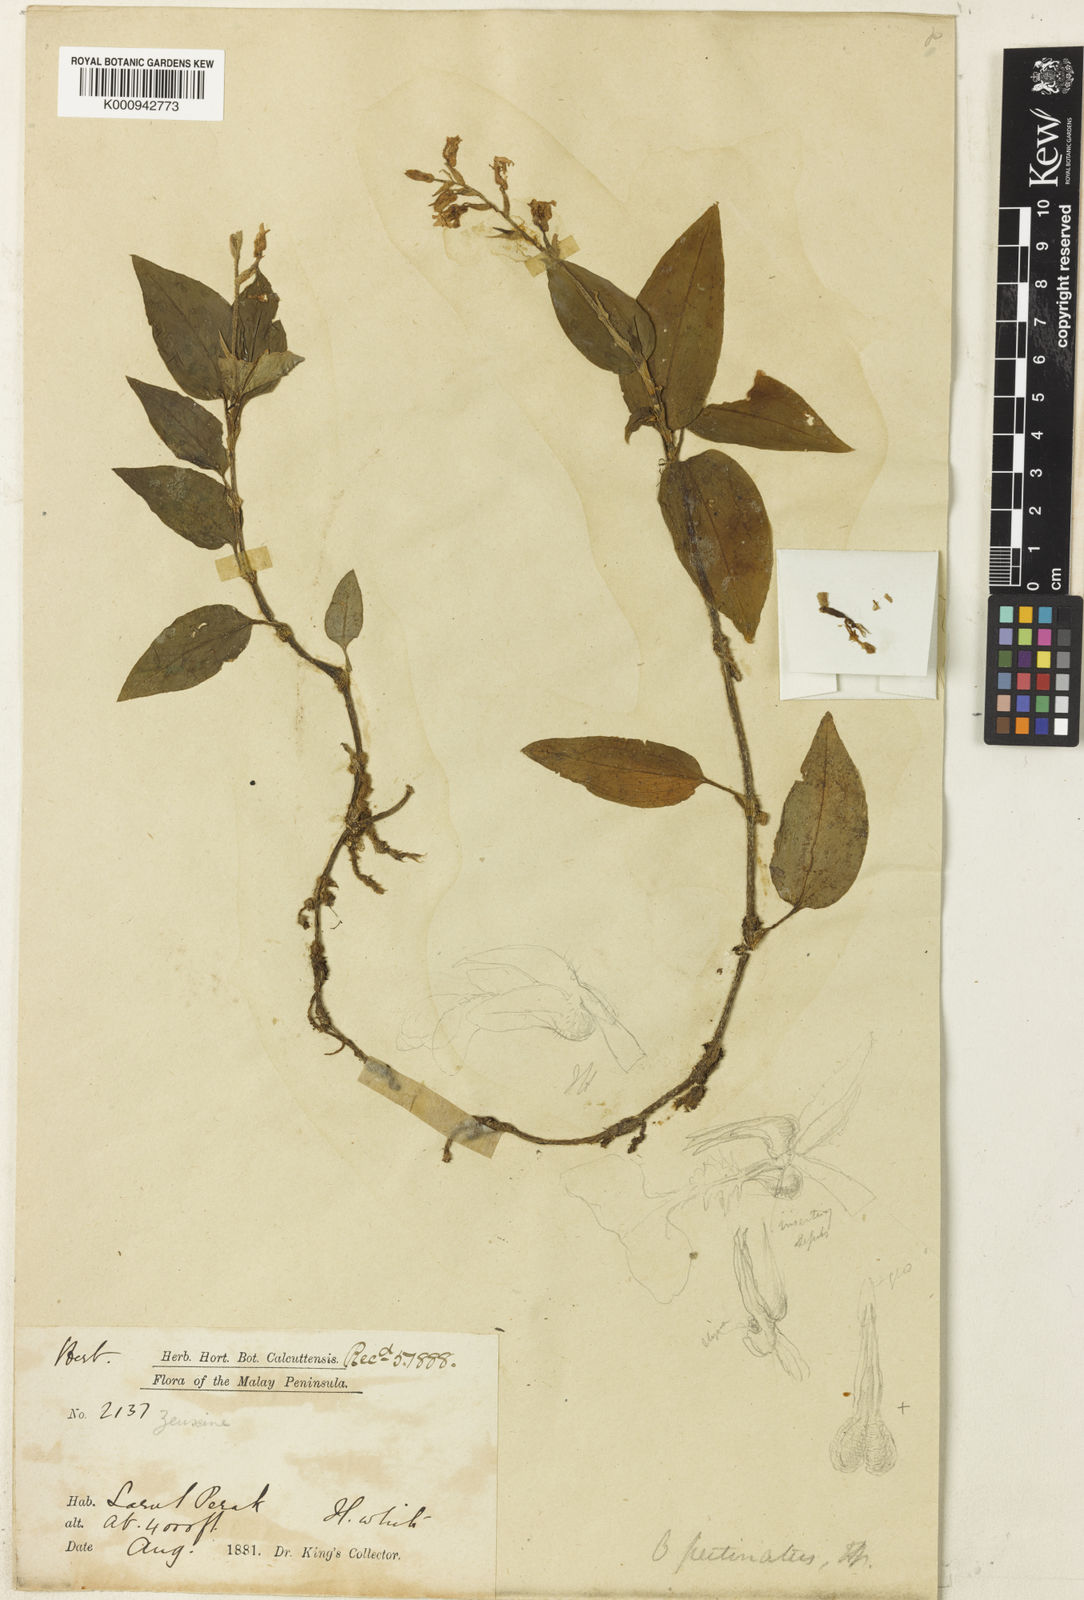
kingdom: Plantae
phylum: Tracheophyta
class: Liliopsida
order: Asparagales
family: Orchidaceae
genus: Anoectochilus
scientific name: Anoectochilus pectinatus
